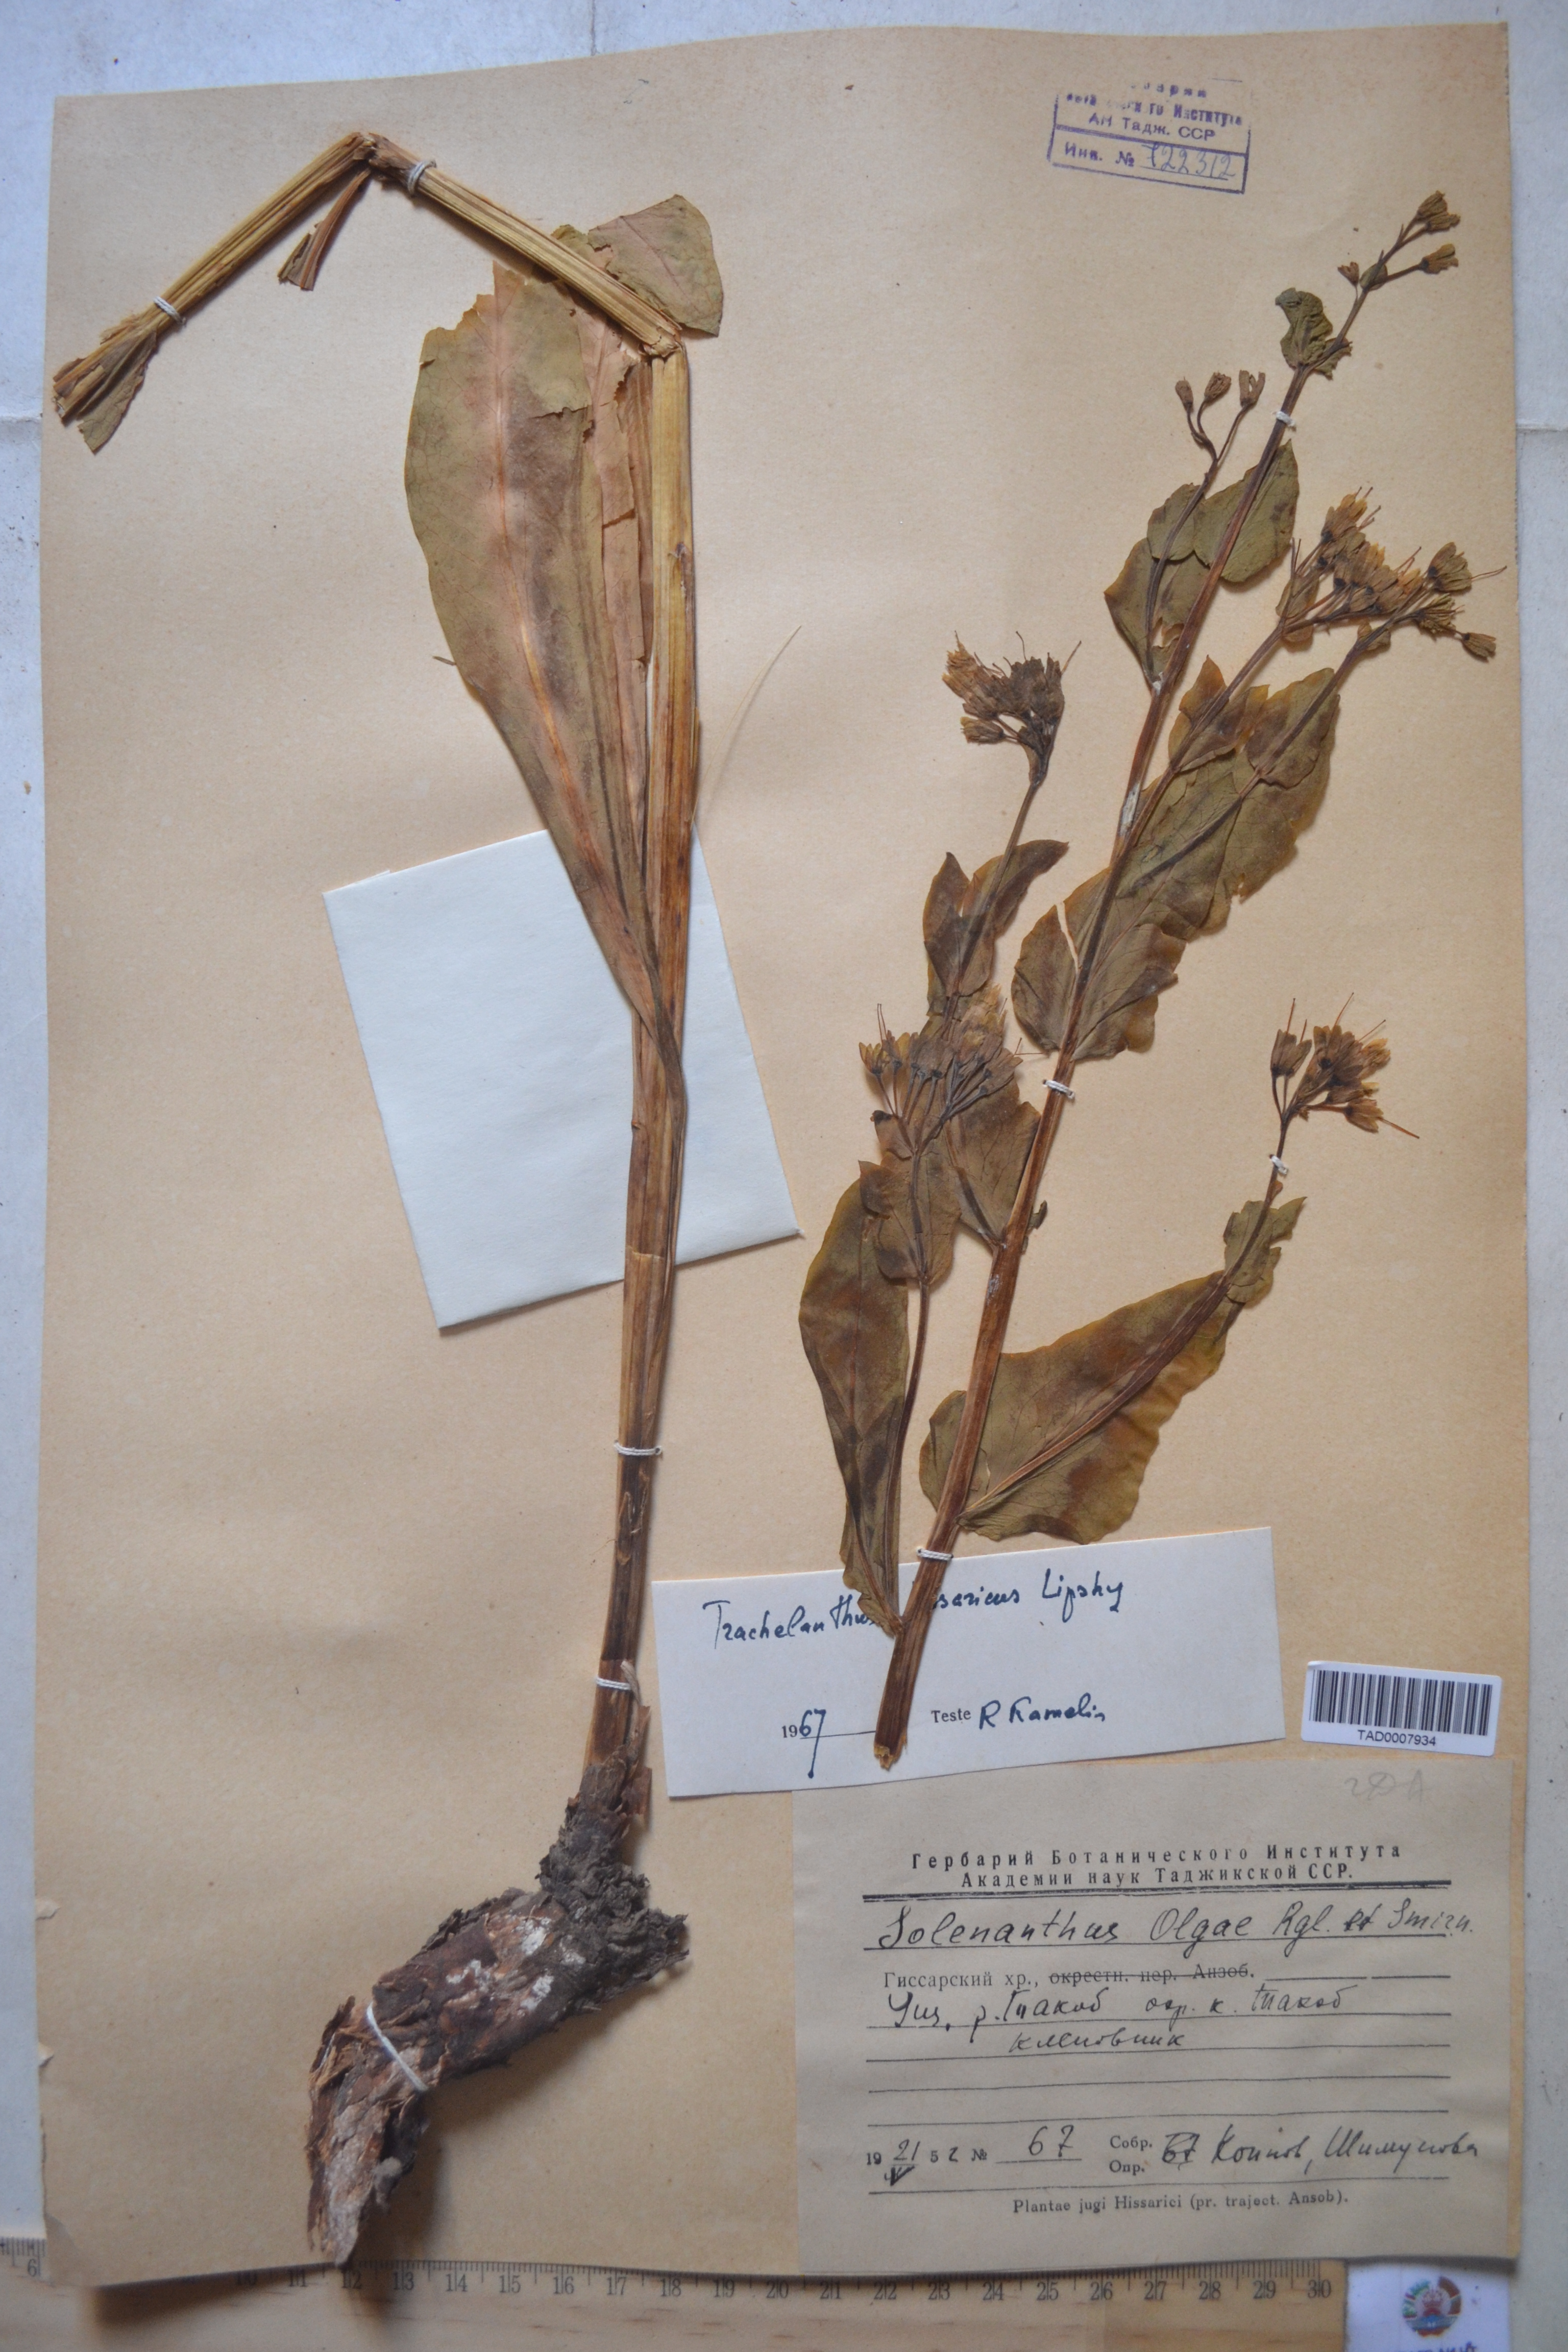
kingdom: Plantae
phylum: Tracheophyta
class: Magnoliopsida
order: Boraginales
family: Boraginaceae
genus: Lindelofia
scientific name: Lindelofia hissarica
